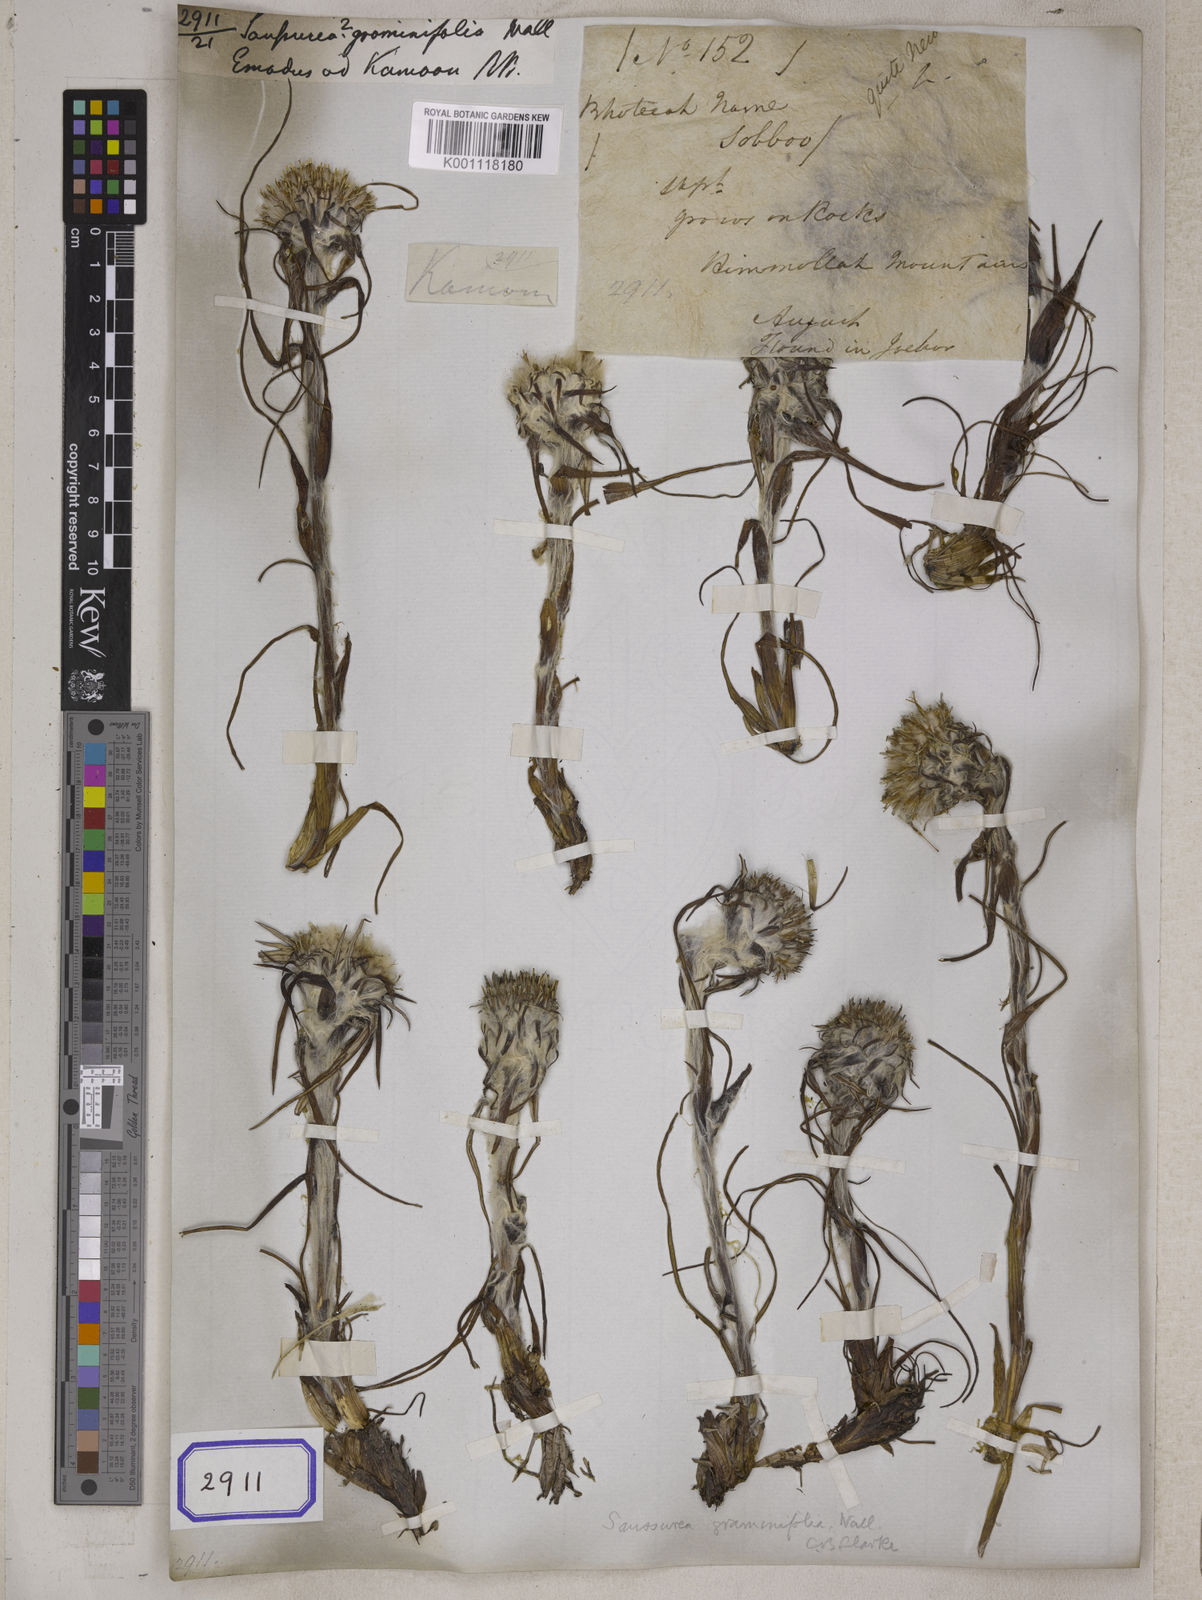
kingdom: Plantae
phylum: Tracheophyta
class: Magnoliopsida
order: Asterales
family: Asteraceae
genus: Saussurea
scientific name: Saussurea graminifolia
